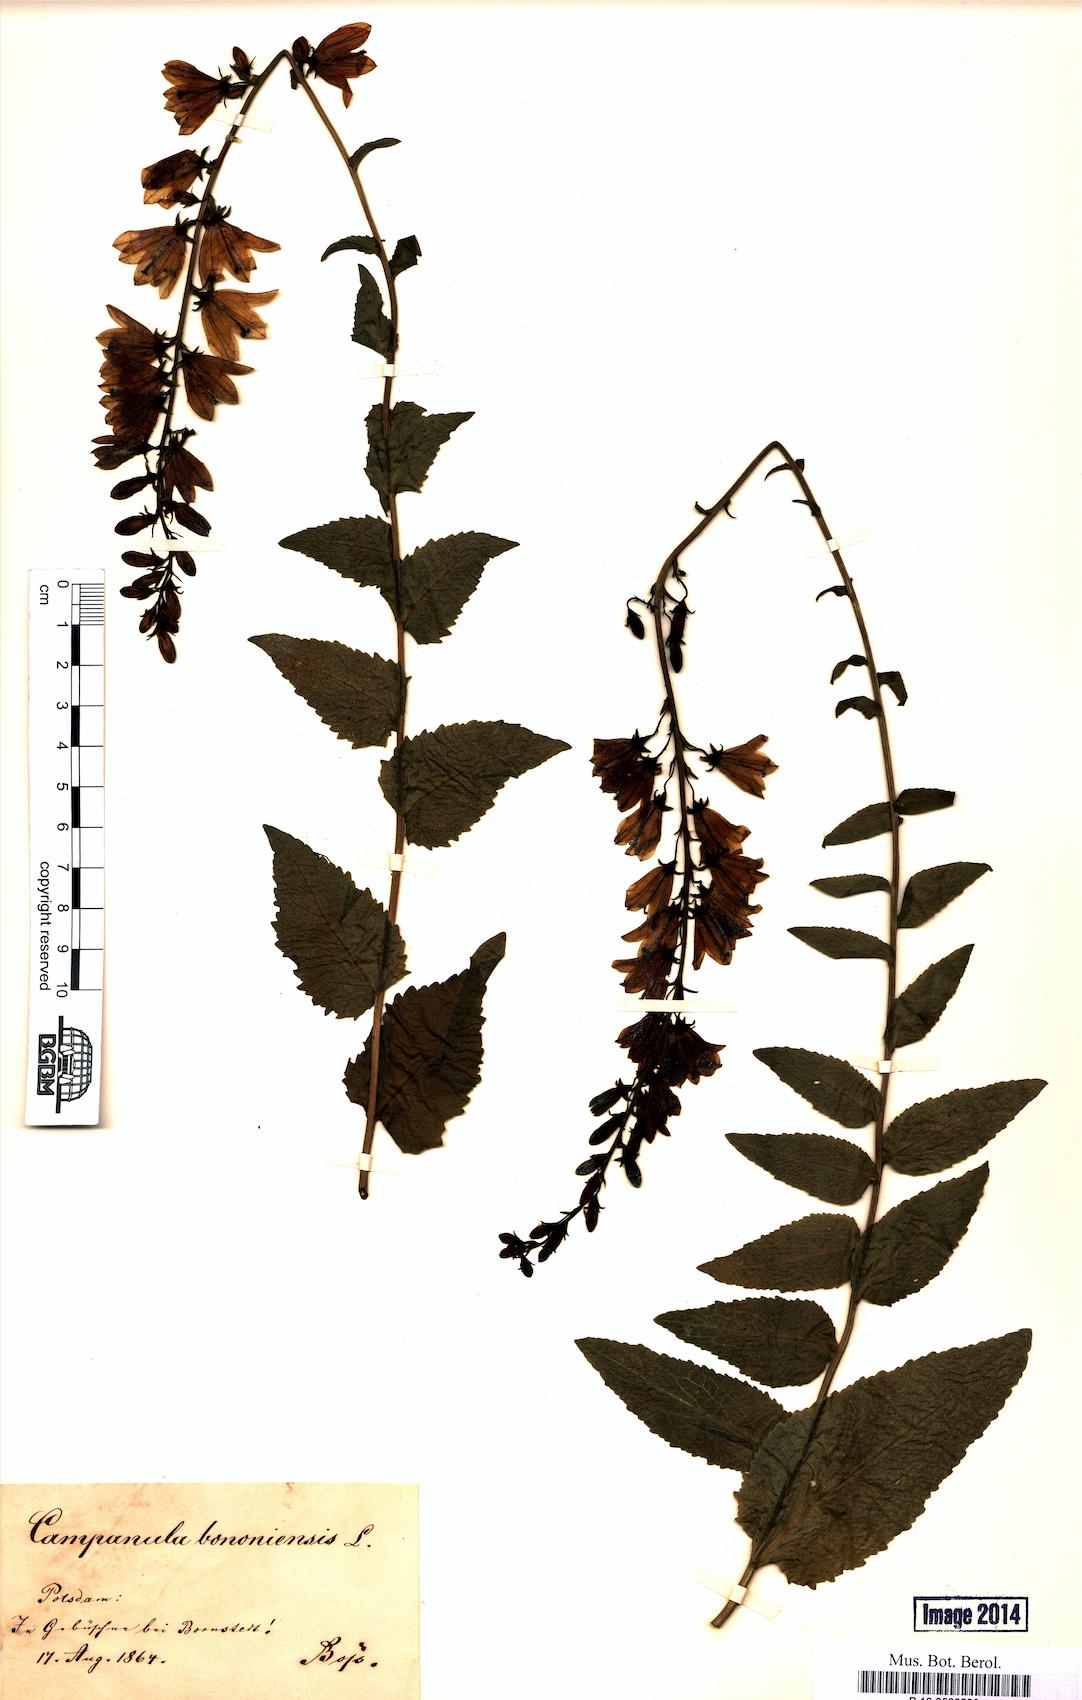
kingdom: Plantae
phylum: Tracheophyta
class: Magnoliopsida
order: Asterales
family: Campanulaceae
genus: Campanula
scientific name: Campanula bononiensis
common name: Pale bellflower
